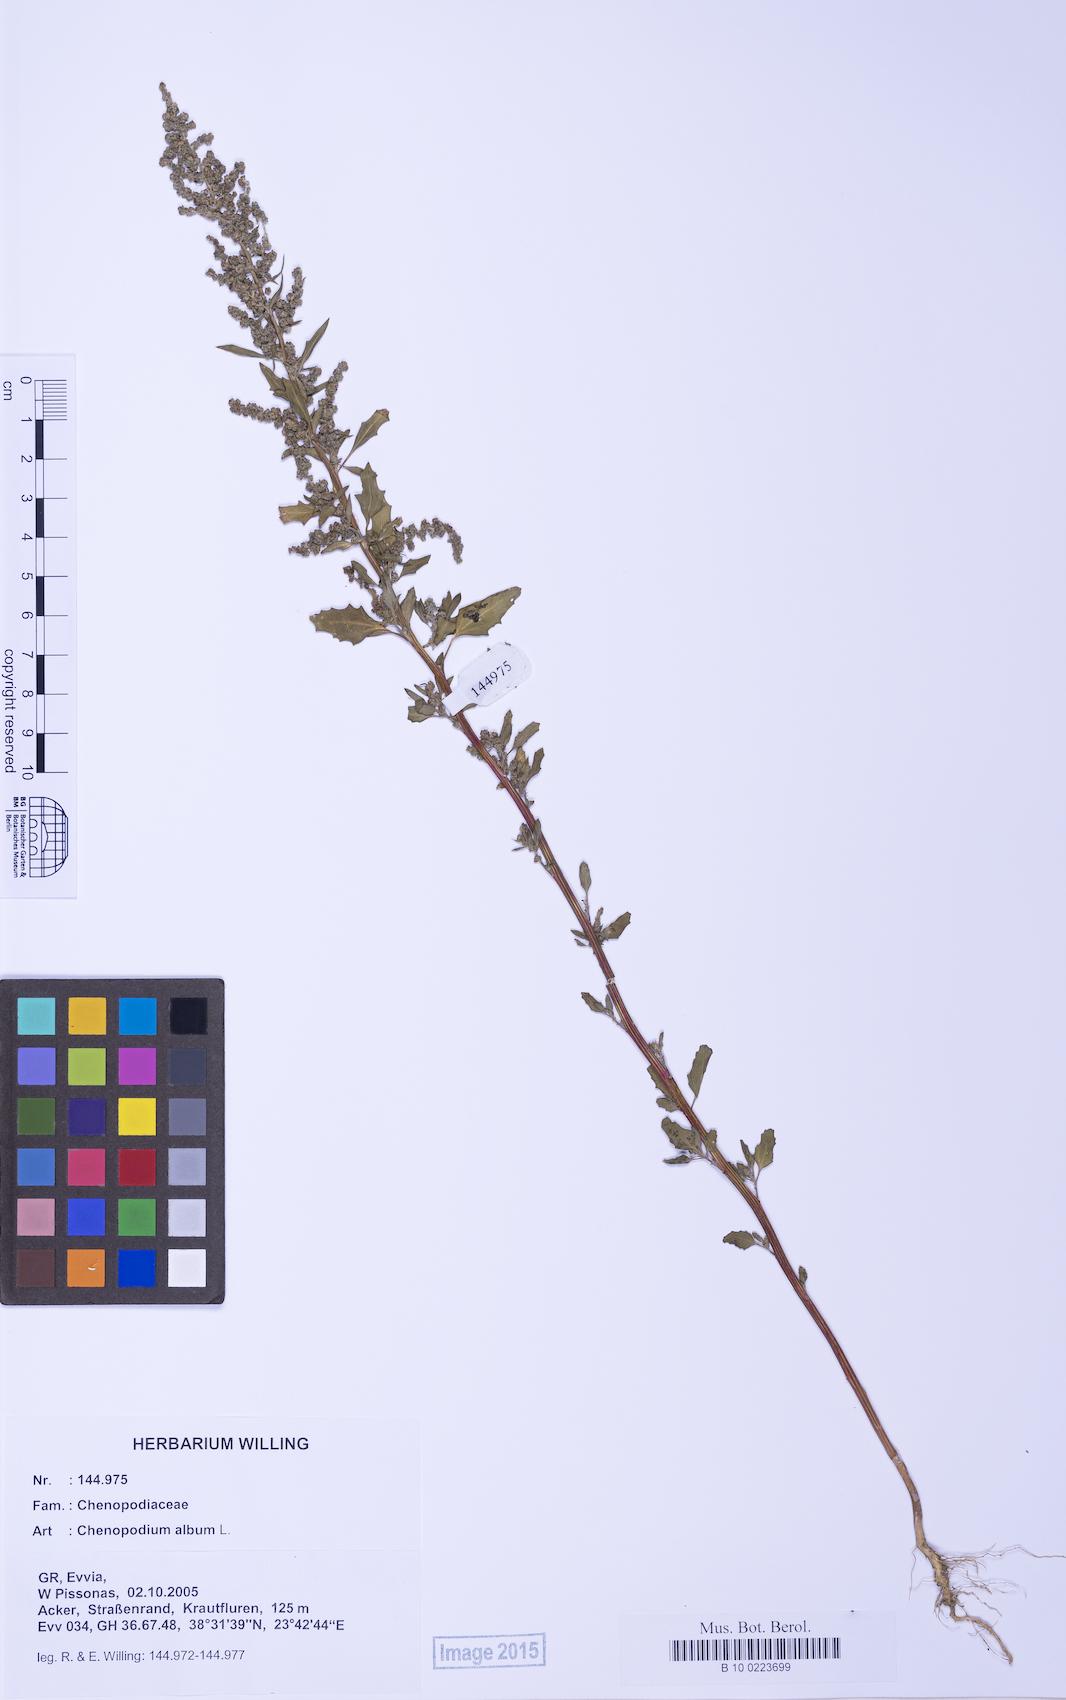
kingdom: Plantae
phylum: Tracheophyta
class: Magnoliopsida
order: Caryophyllales
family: Amaranthaceae
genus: Chenopodium
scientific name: Chenopodium album
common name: Fat-hen
